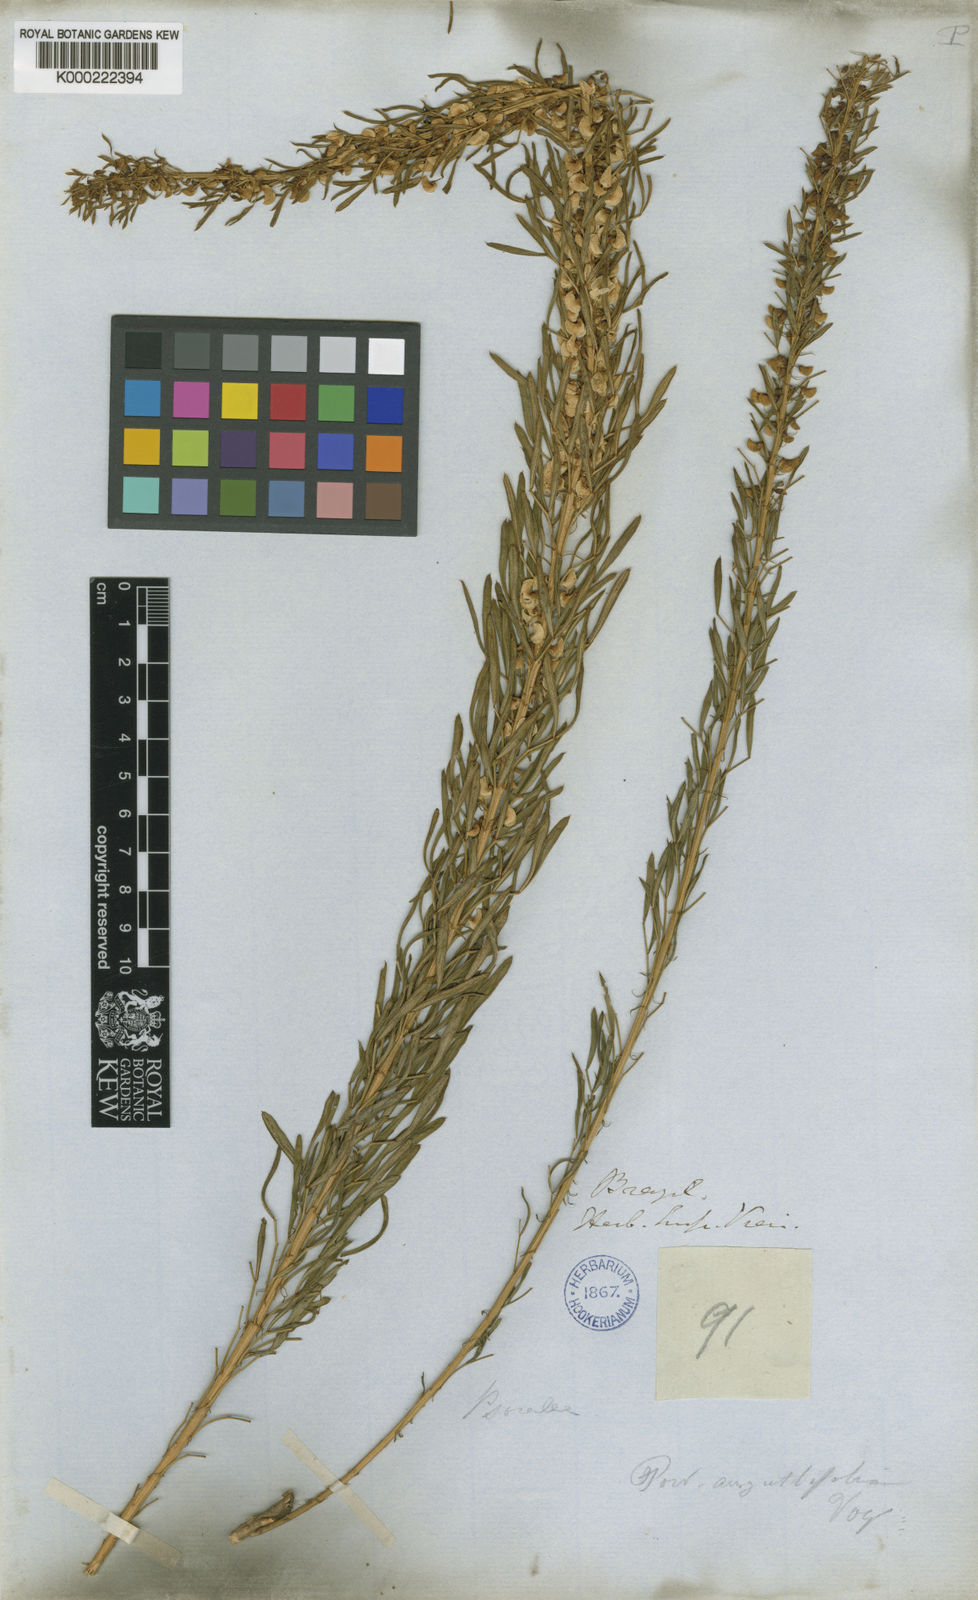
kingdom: Plantae
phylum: Tracheophyta
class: Magnoliopsida
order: Fabales
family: Fabaceae
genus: Poiretia
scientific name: Poiretia angustifolia
